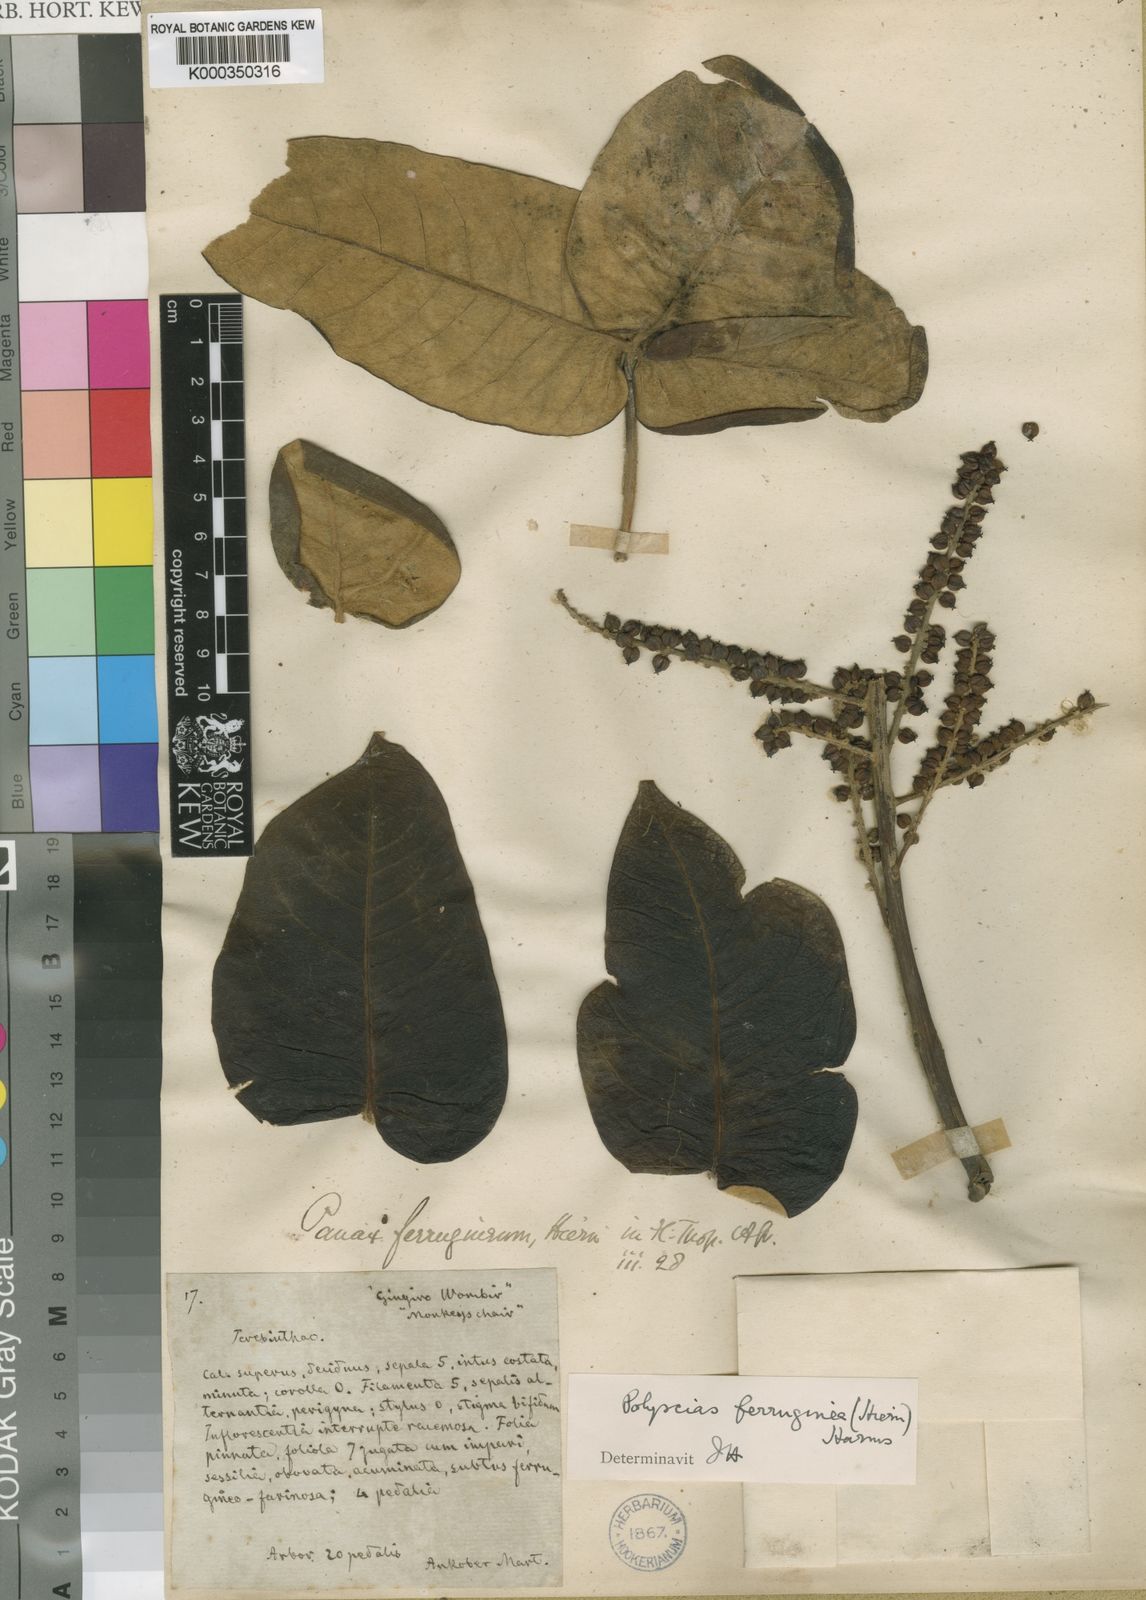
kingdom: Plantae
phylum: Tracheophyta
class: Magnoliopsida
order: Apiales
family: Araliaceae
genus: Polyscias
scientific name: Polyscias fulva
